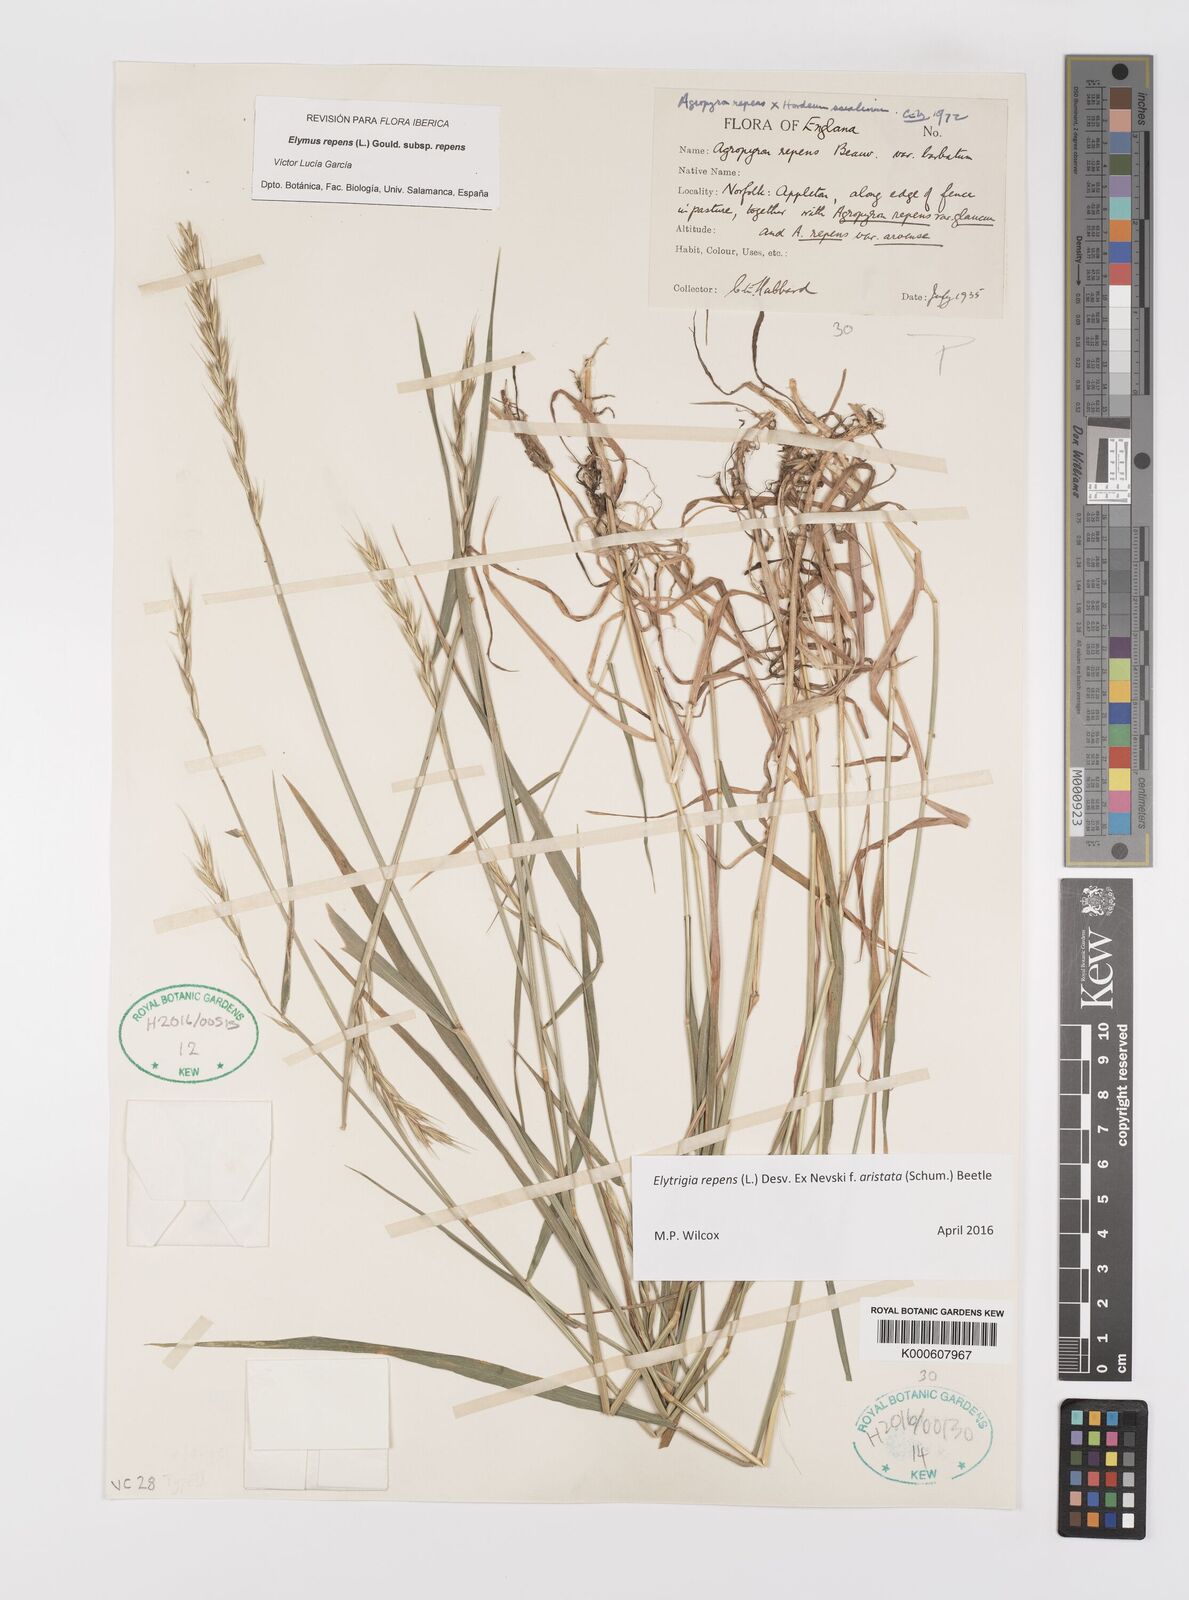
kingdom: Plantae
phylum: Tracheophyta
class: Liliopsida
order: Poales
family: Poaceae
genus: Elymus
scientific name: Elymus repens
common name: Quackgrass
